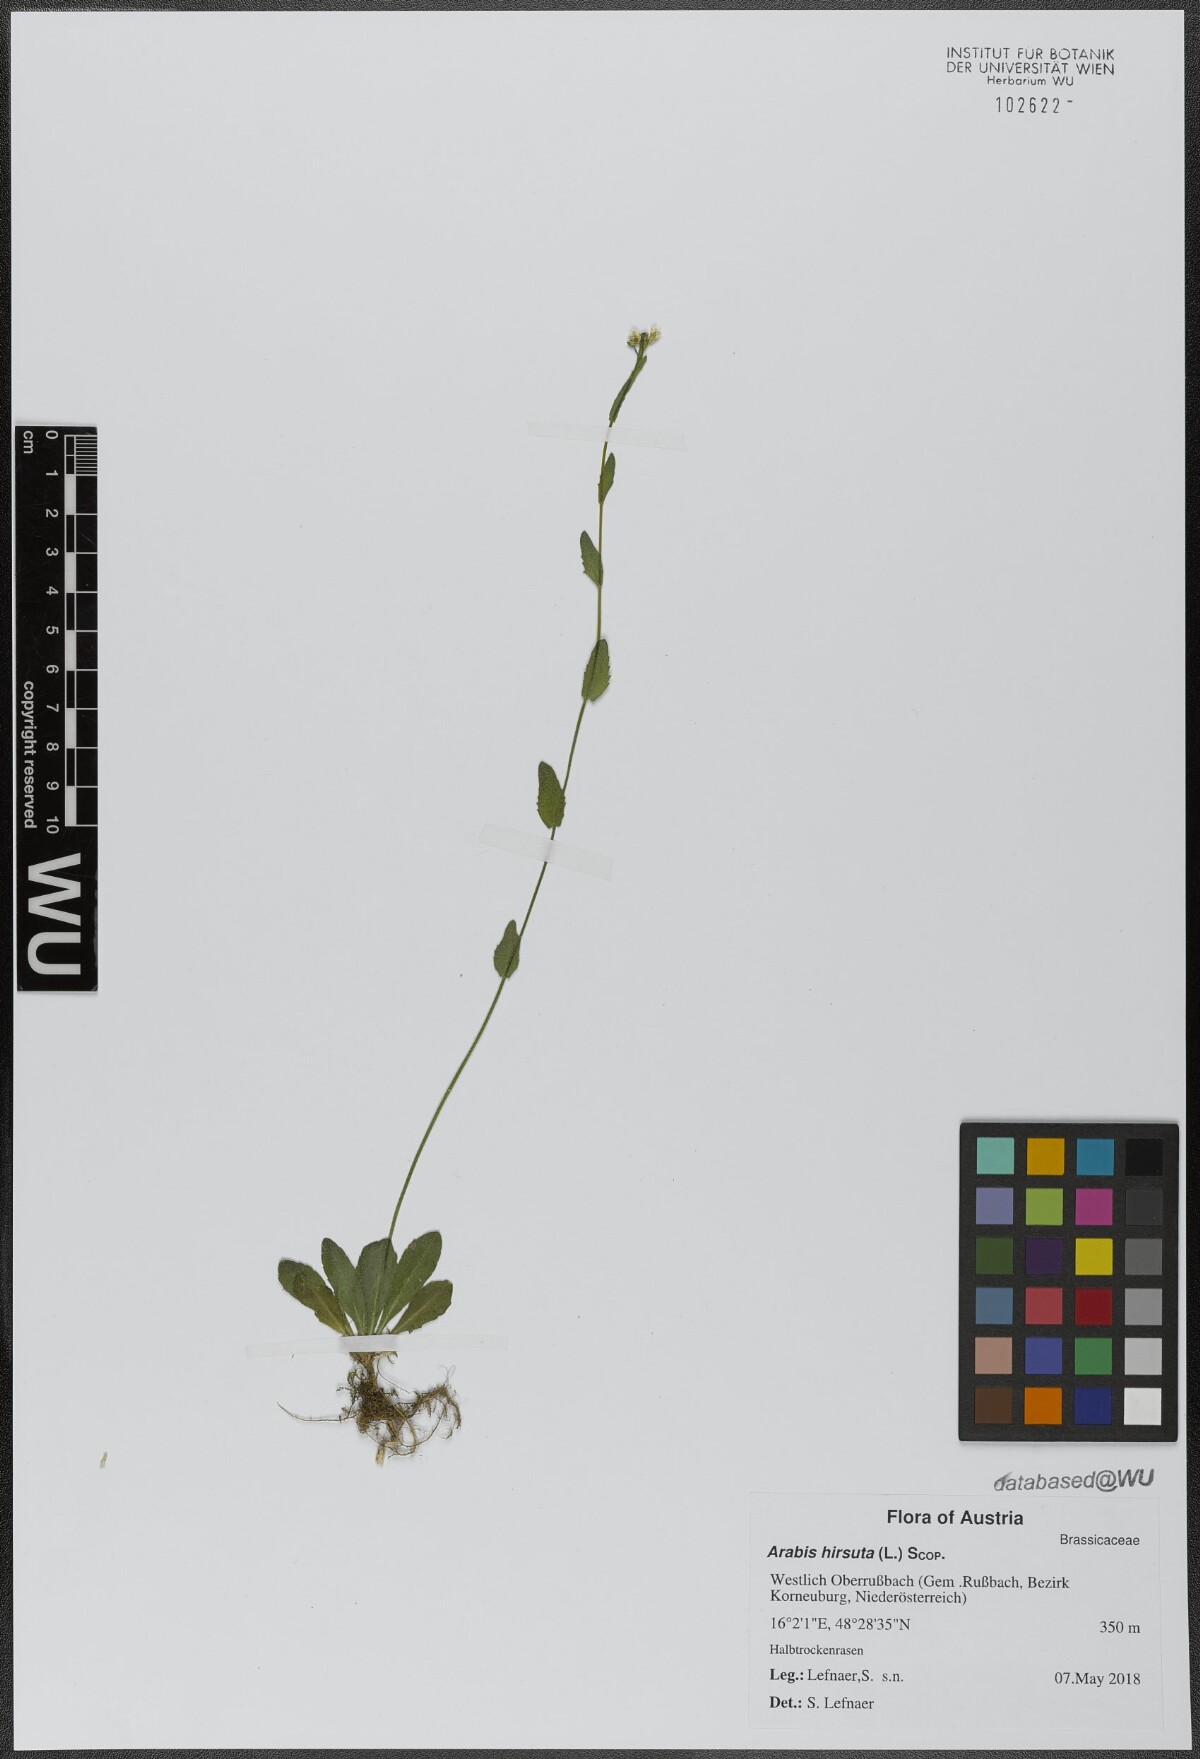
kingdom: Plantae
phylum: Tracheophyta
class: Magnoliopsida
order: Brassicales
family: Brassicaceae
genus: Arabis
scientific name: Arabis hirsuta
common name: Hairy rock-cress
